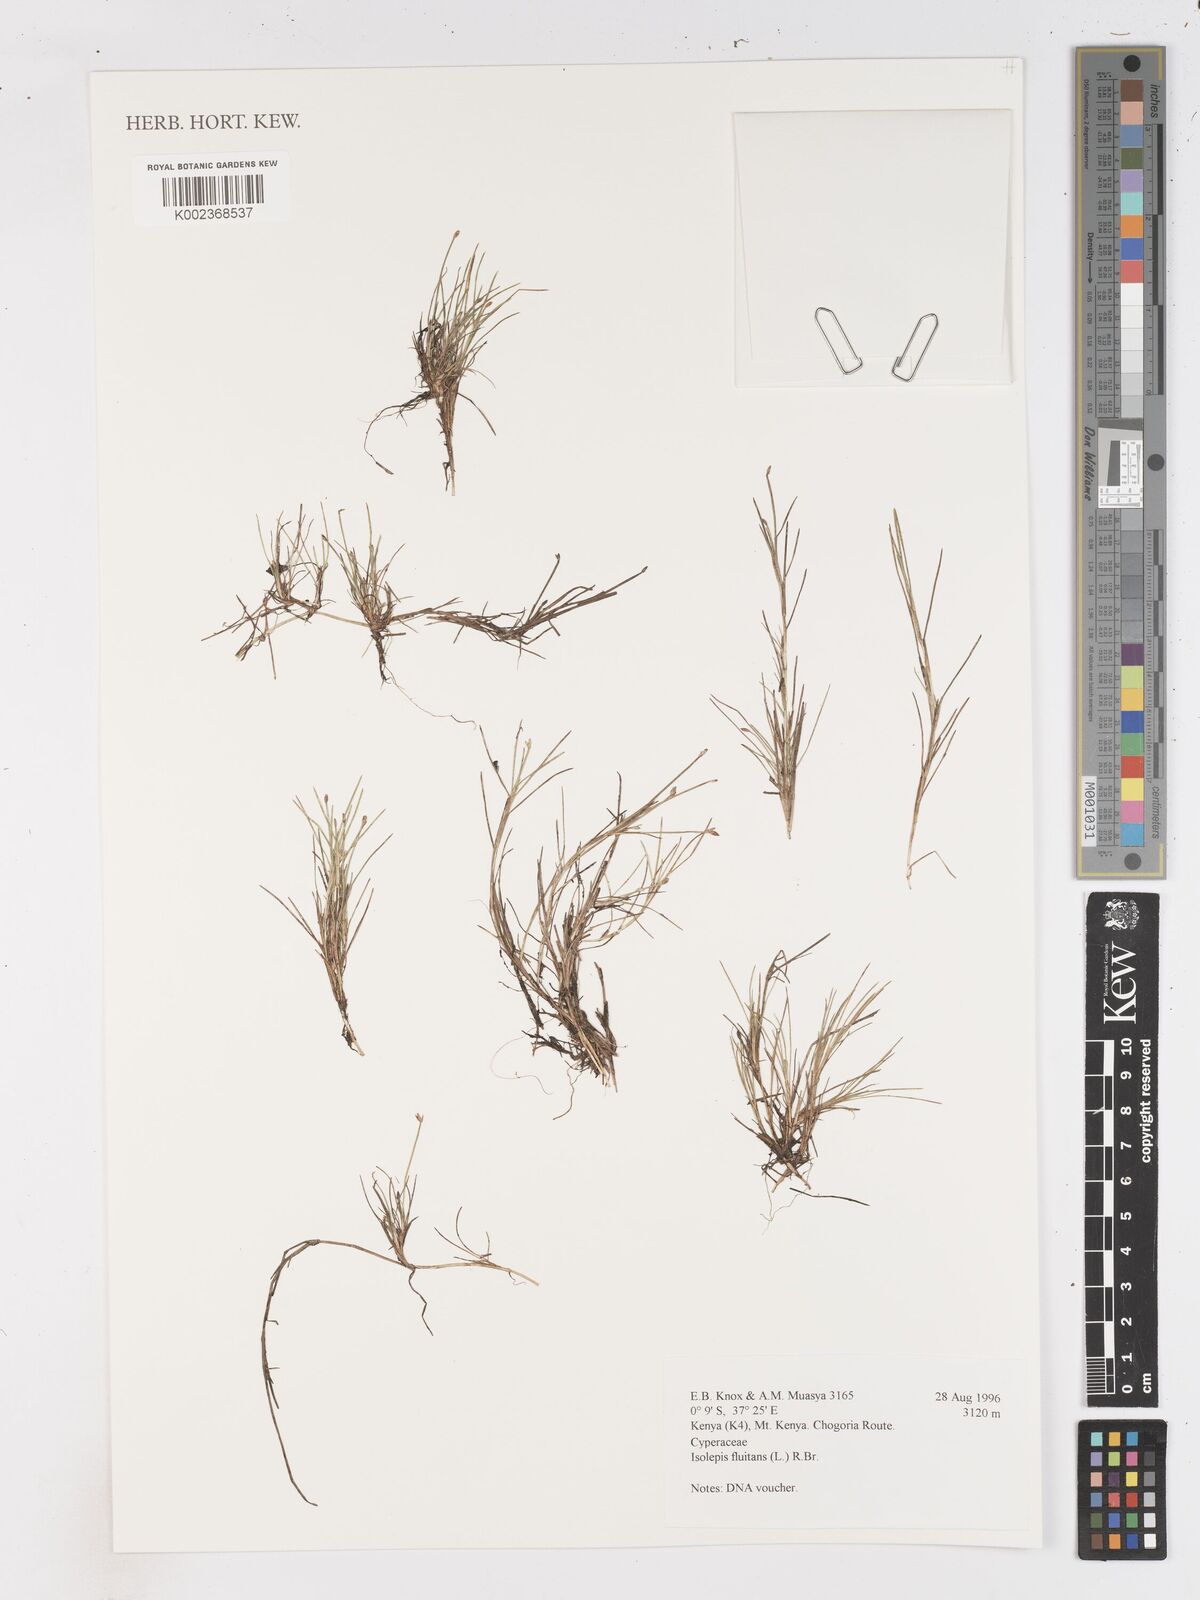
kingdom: Plantae
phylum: Tracheophyta
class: Liliopsida
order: Poales
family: Cyperaceae
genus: Isolepis
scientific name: Isolepis fluitans
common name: Floating club-rush
